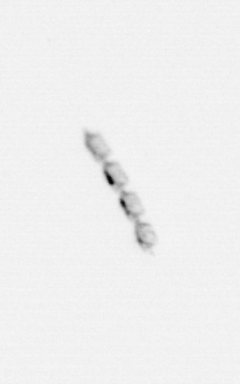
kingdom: Chromista
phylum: Ochrophyta
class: Bacillariophyceae
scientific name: Bacillariophyceae
